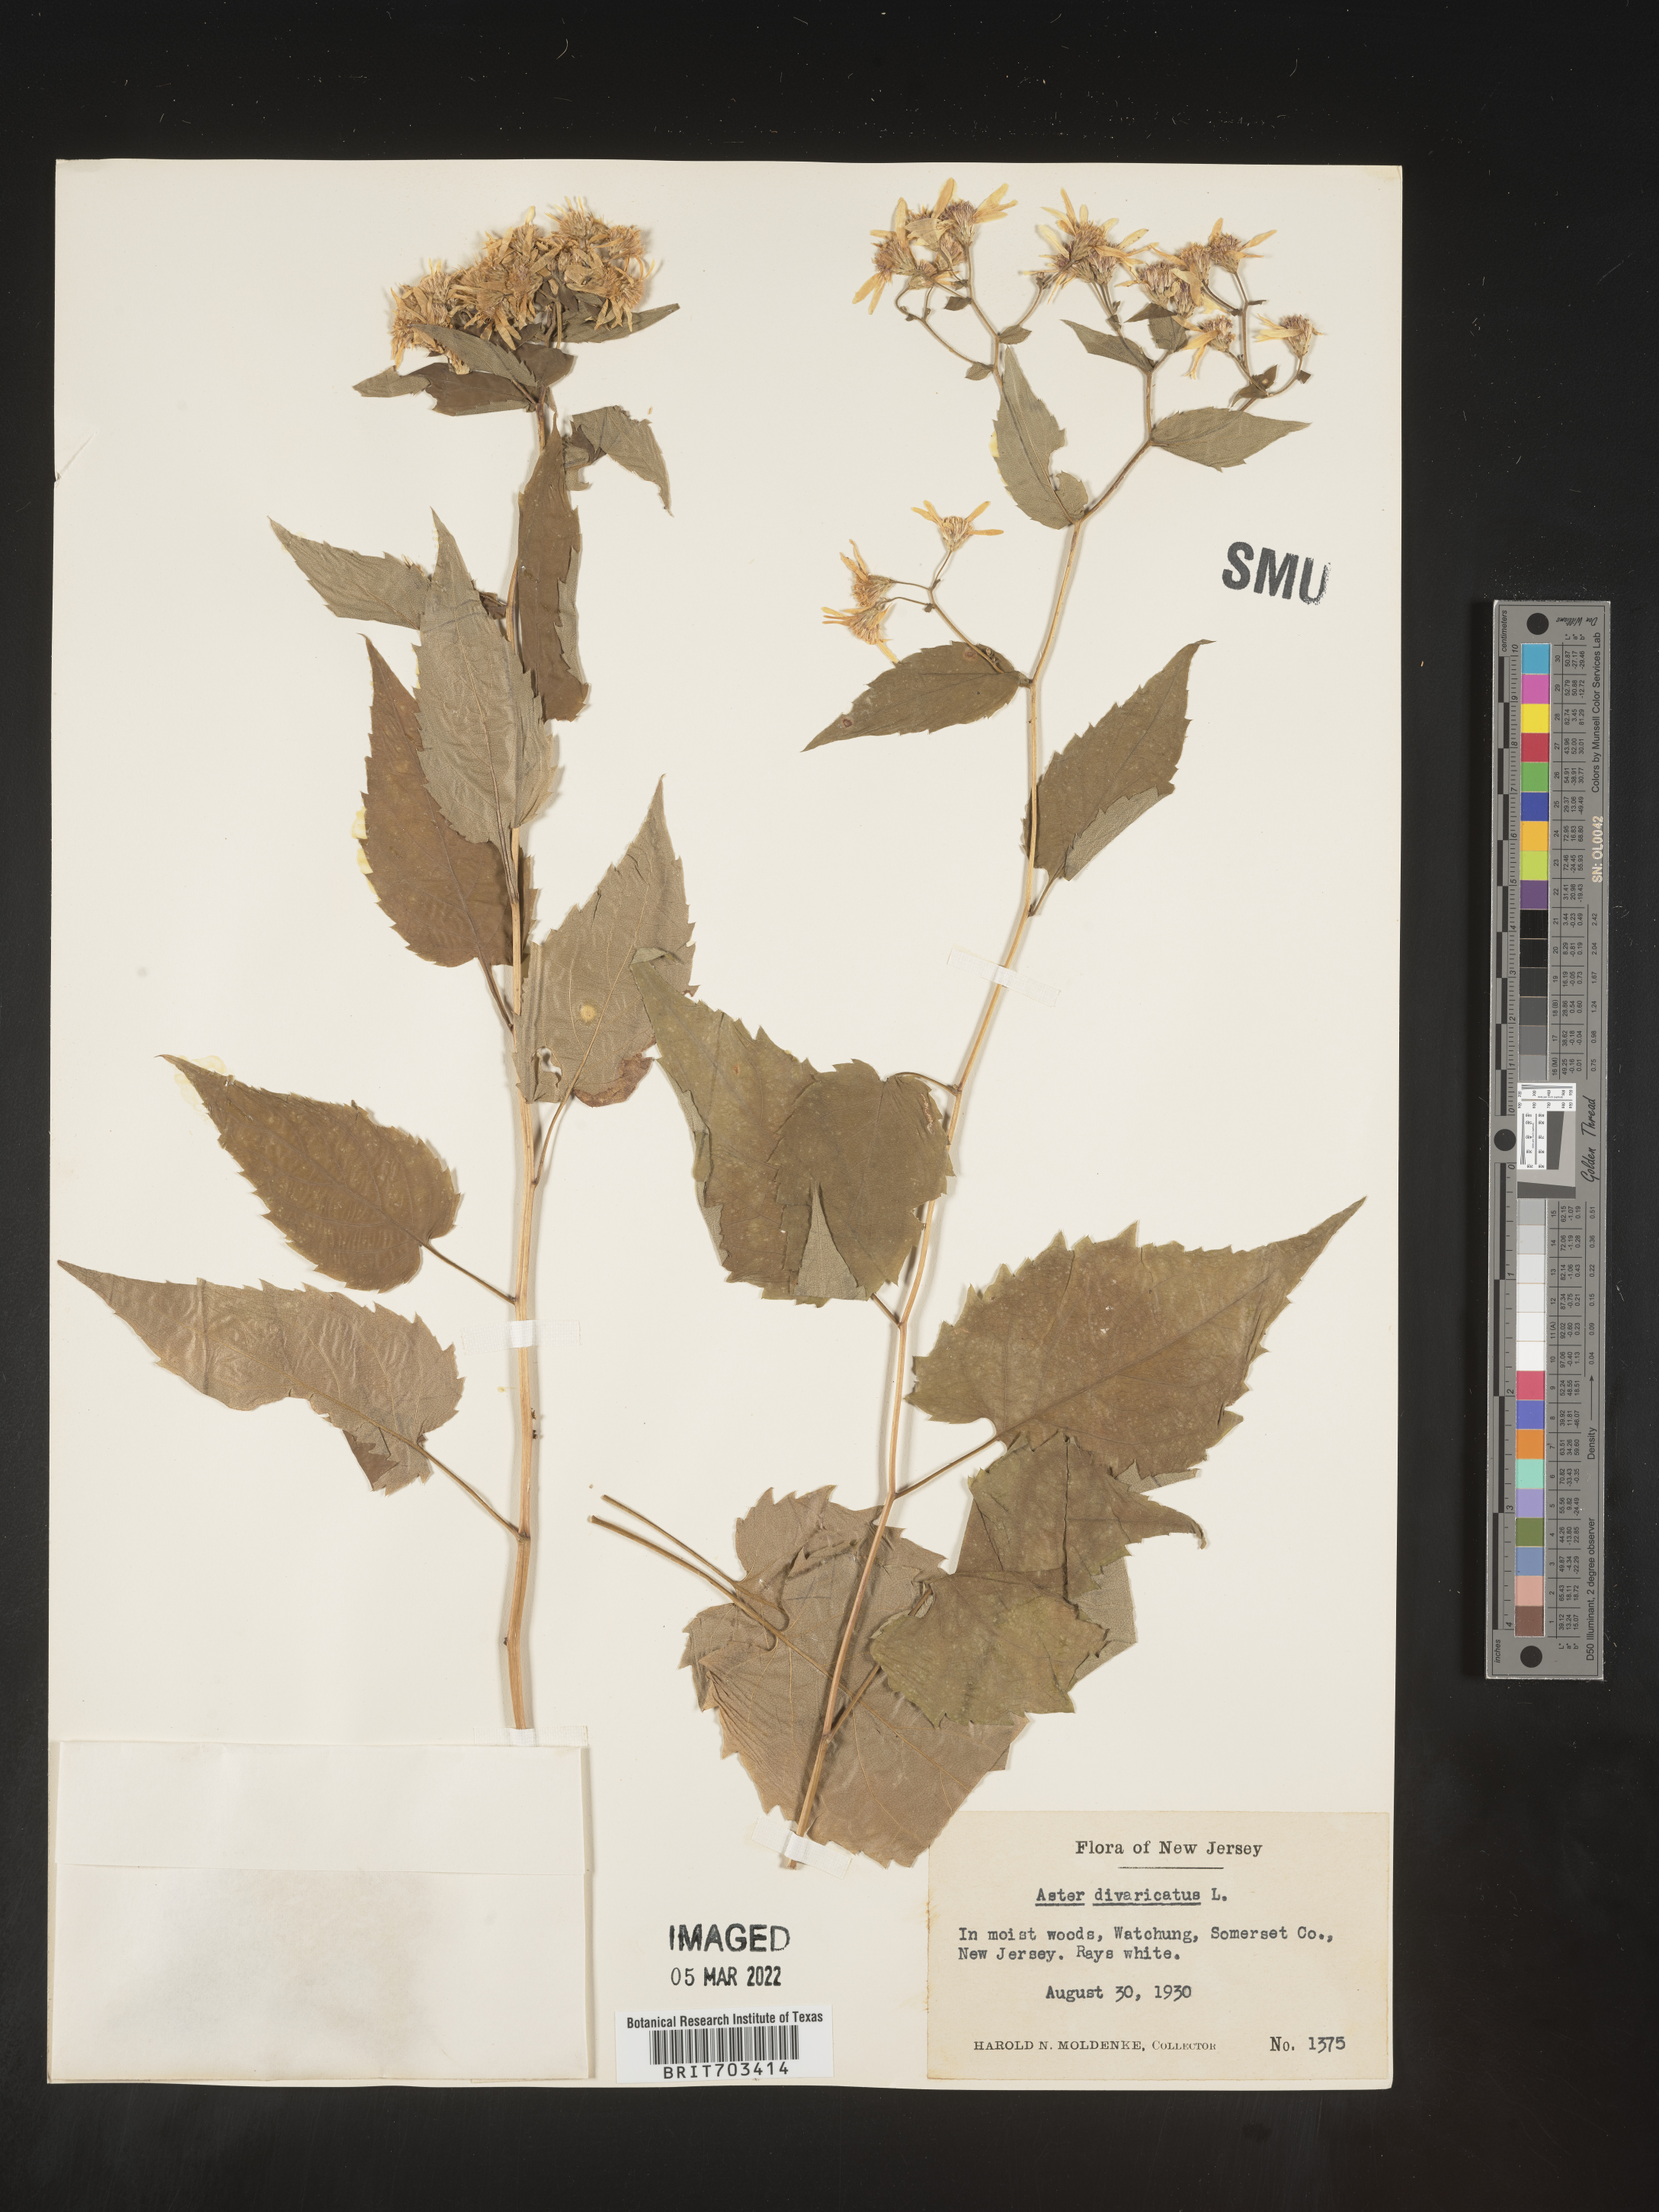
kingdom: Plantae
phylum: Tracheophyta
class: Magnoliopsida
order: Asterales
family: Asteraceae
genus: Eurybia
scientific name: Eurybia divaricata
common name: White wood aster
